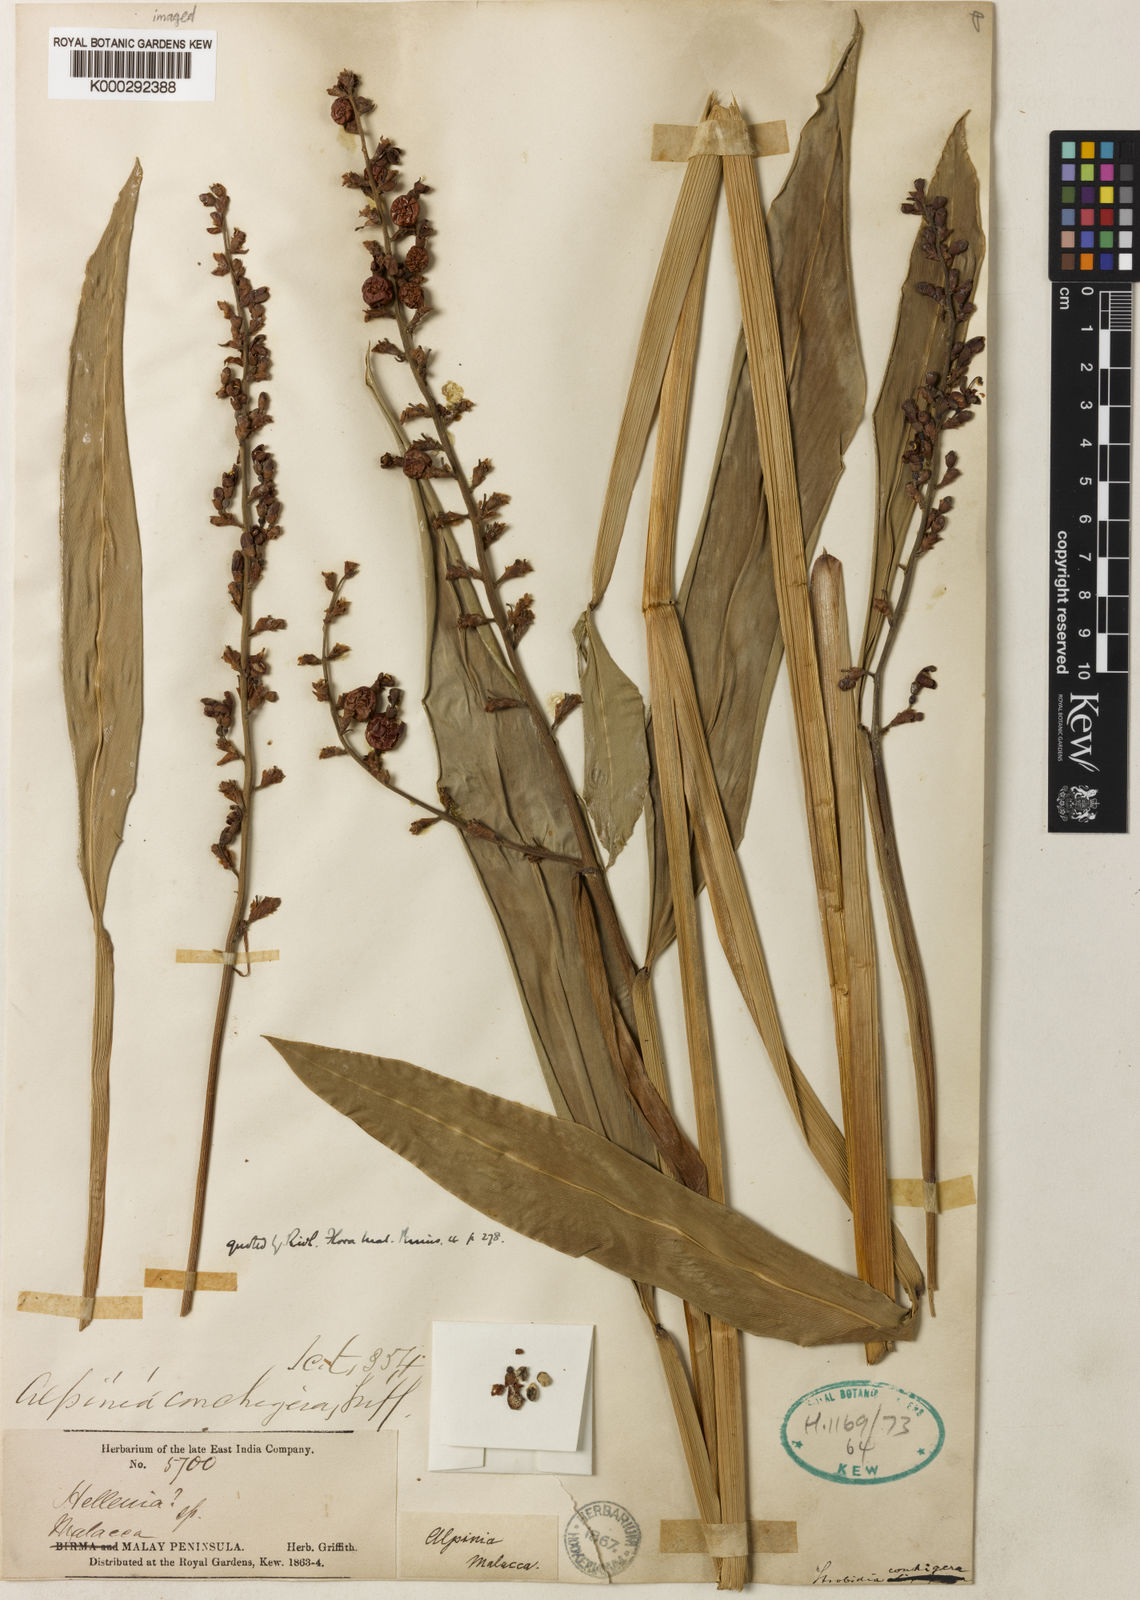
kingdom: Plantae
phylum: Tracheophyta
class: Liliopsida
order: Zingiberales
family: Zingiberaceae
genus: Alpinia
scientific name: Alpinia conchigera
